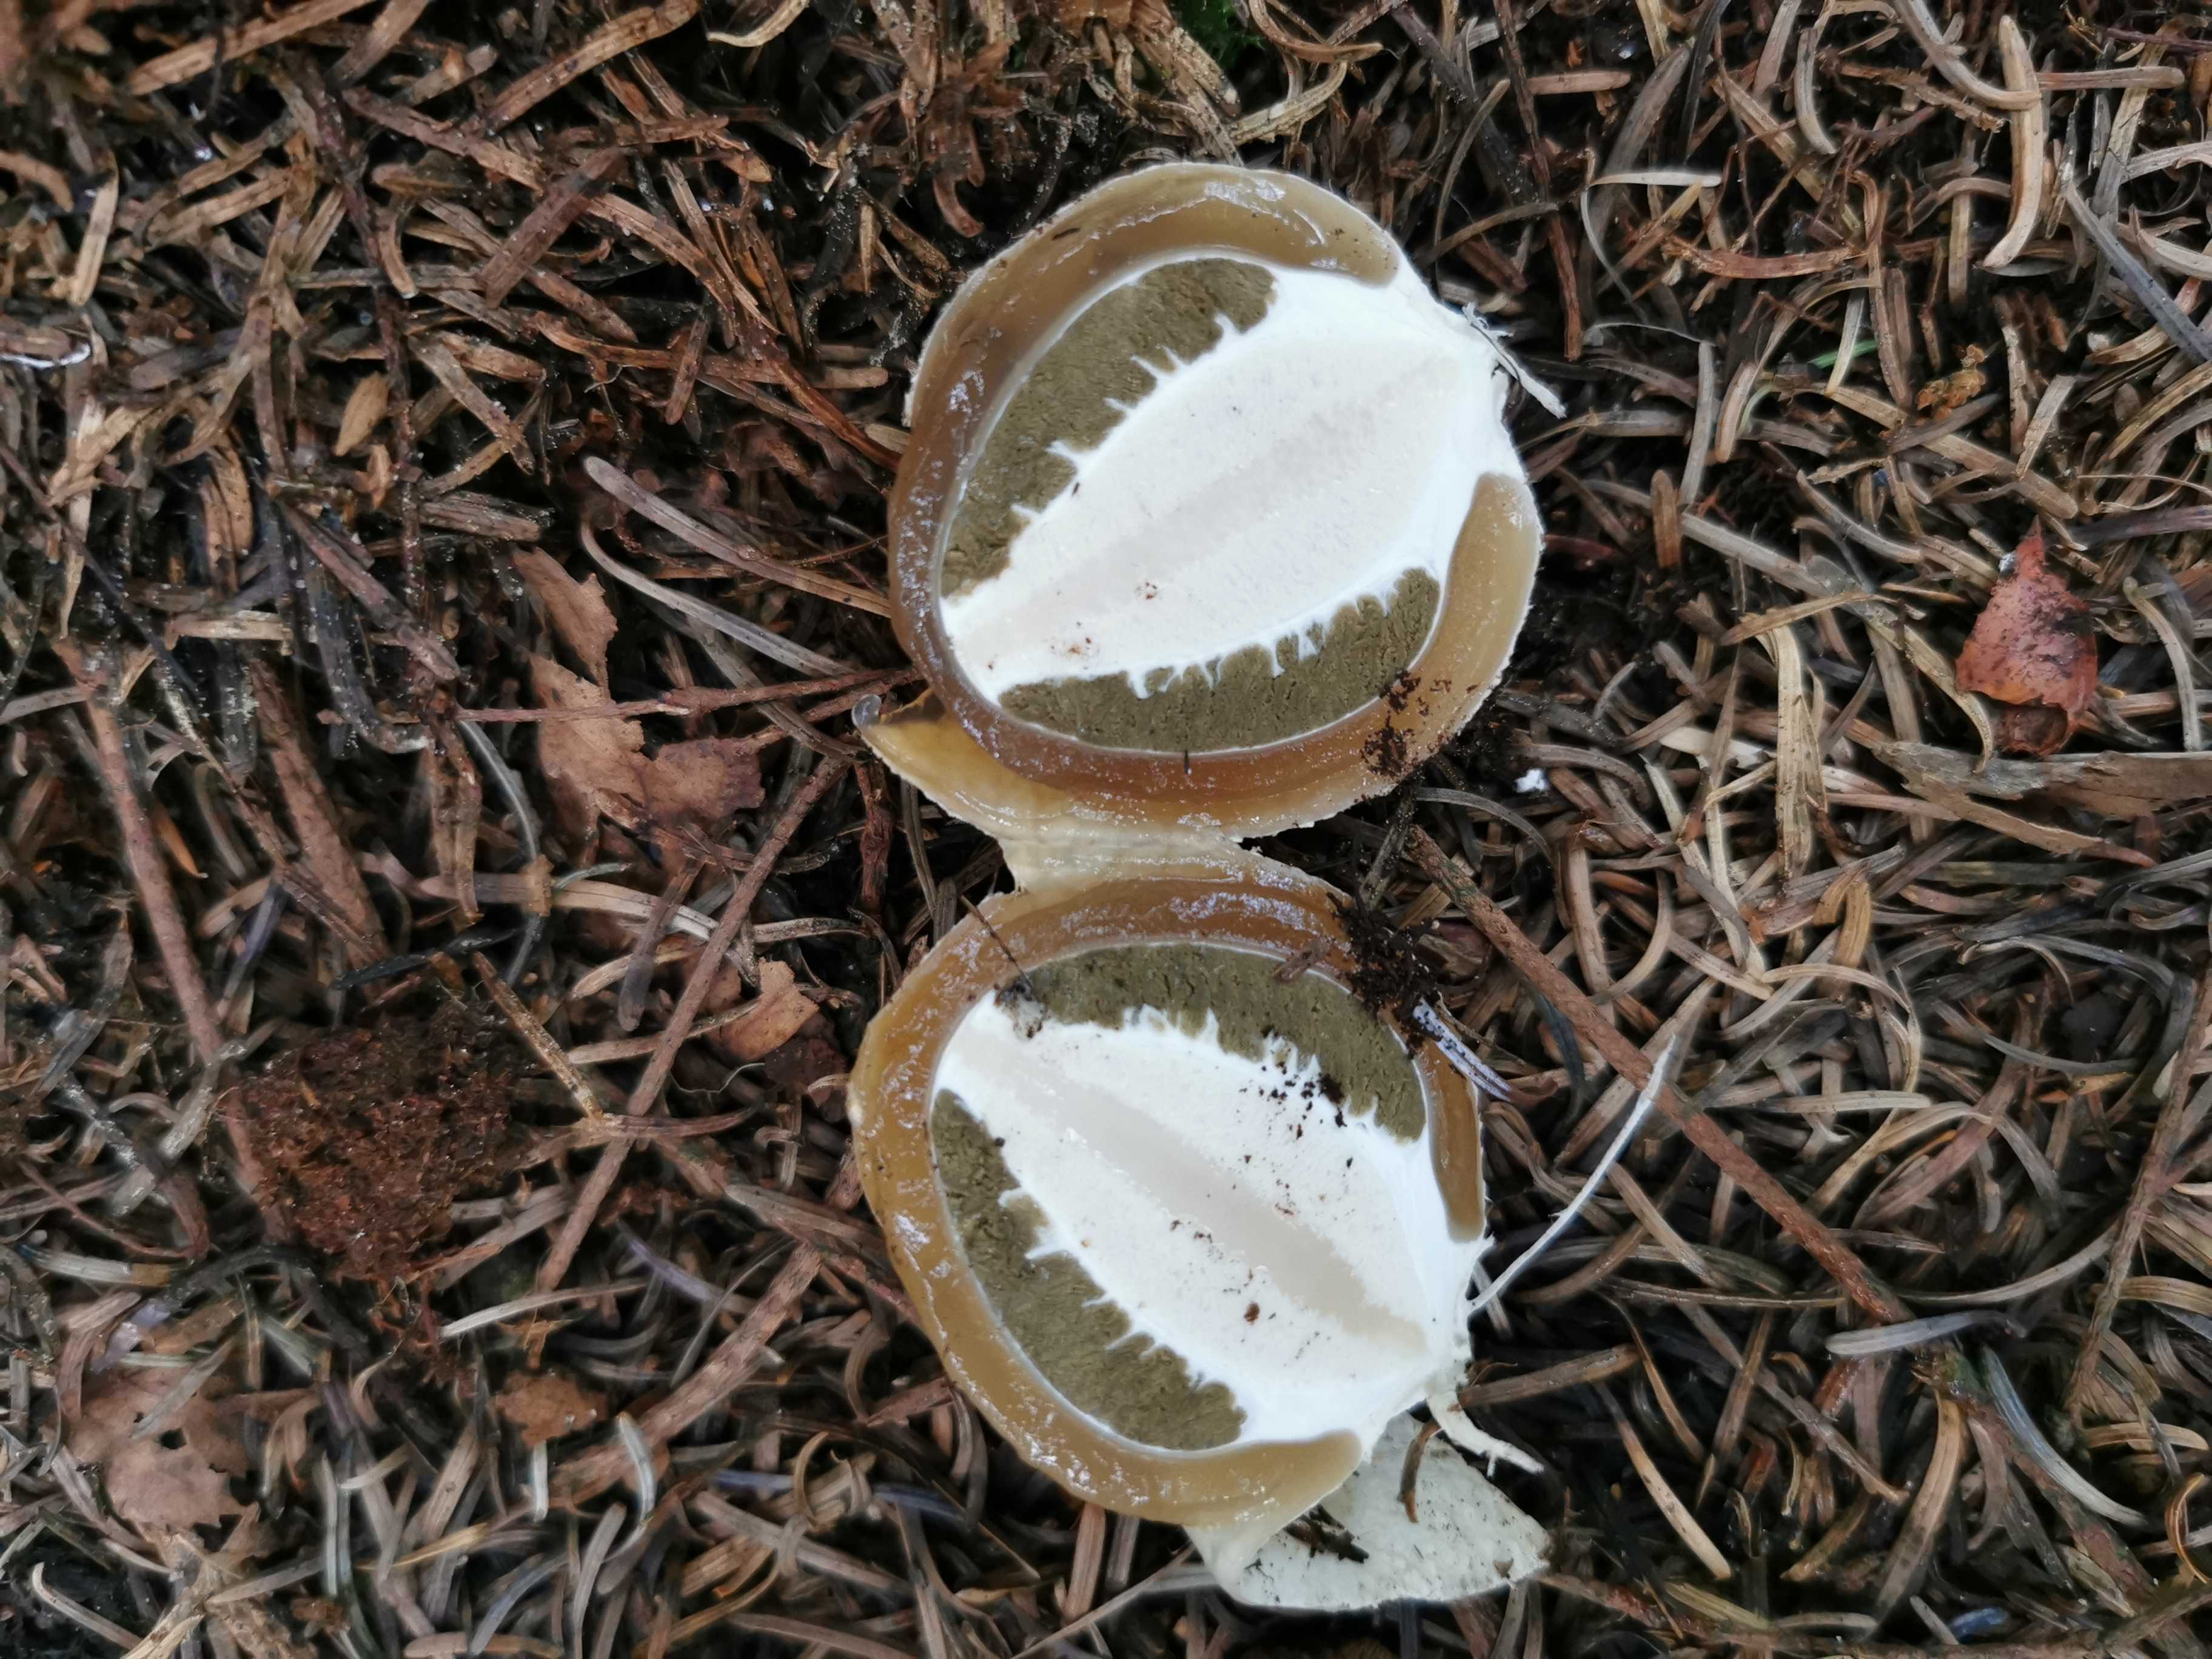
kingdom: Fungi
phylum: Basidiomycota
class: Agaricomycetes
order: Phallales
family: Phallaceae
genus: Phallus
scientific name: Phallus impudicus
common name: almindelig stinksvamp
